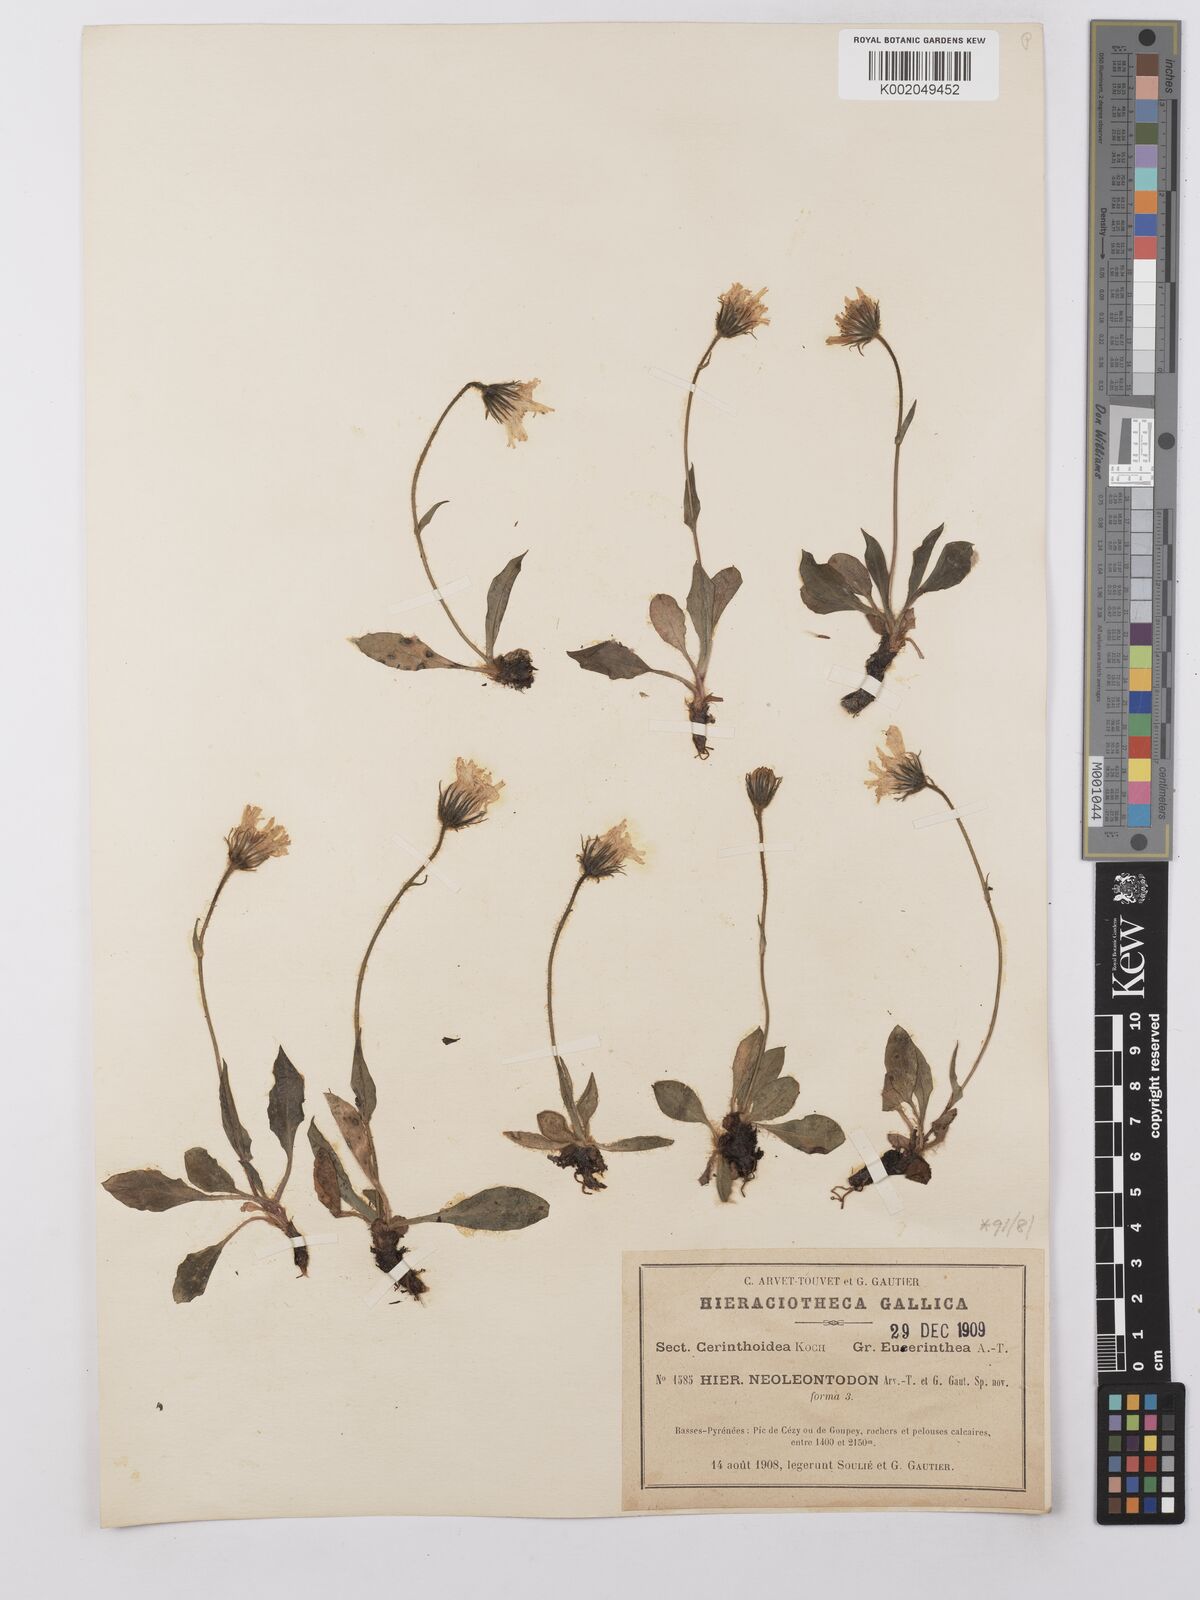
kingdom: Plantae
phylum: Tracheophyta
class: Magnoliopsida
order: Asterales
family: Asteraceae
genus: Hieracium
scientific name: Hieracium ramondii
